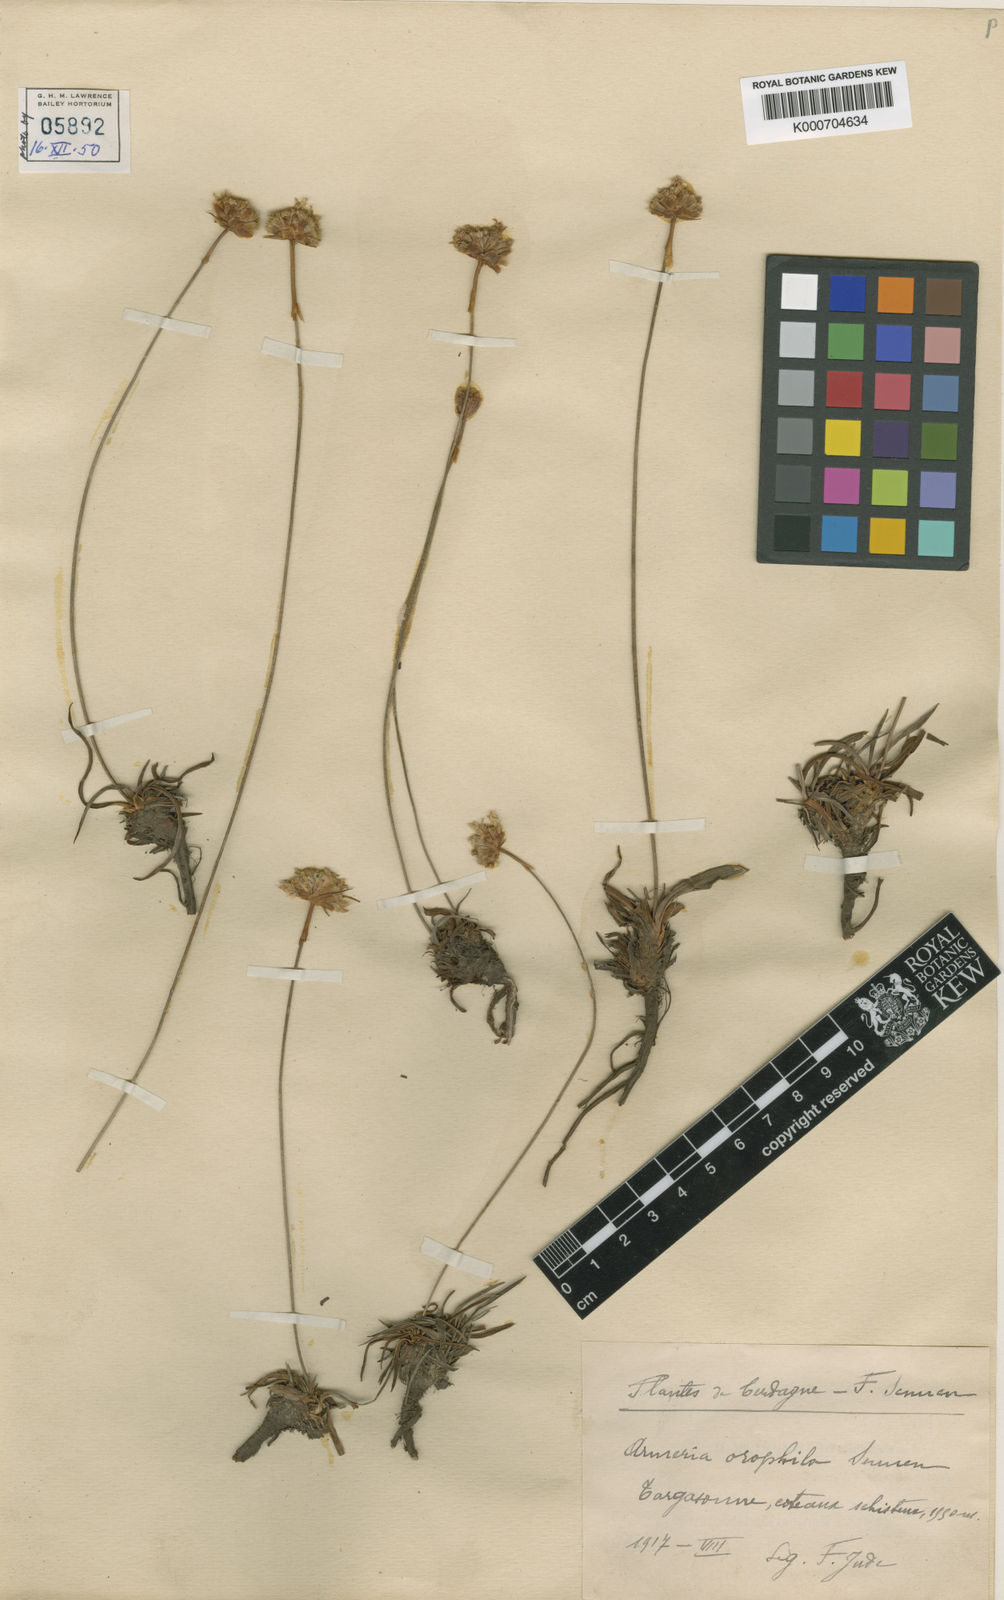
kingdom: Plantae
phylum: Tracheophyta
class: Magnoliopsida
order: Caryophyllales
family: Plumbaginaceae
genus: Armeria
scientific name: Armeria
